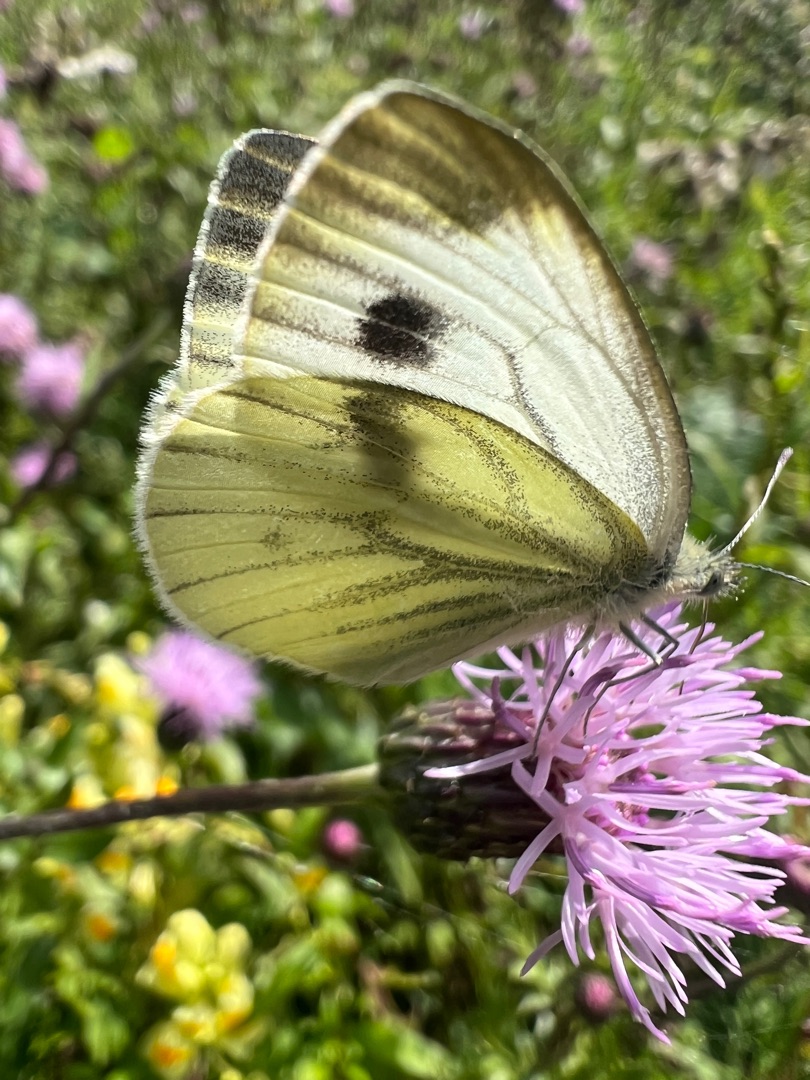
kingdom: Animalia
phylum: Arthropoda
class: Insecta
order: Lepidoptera
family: Pieridae
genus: Pieris
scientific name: Pieris napi
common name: Grønåret kålsommerfugl
